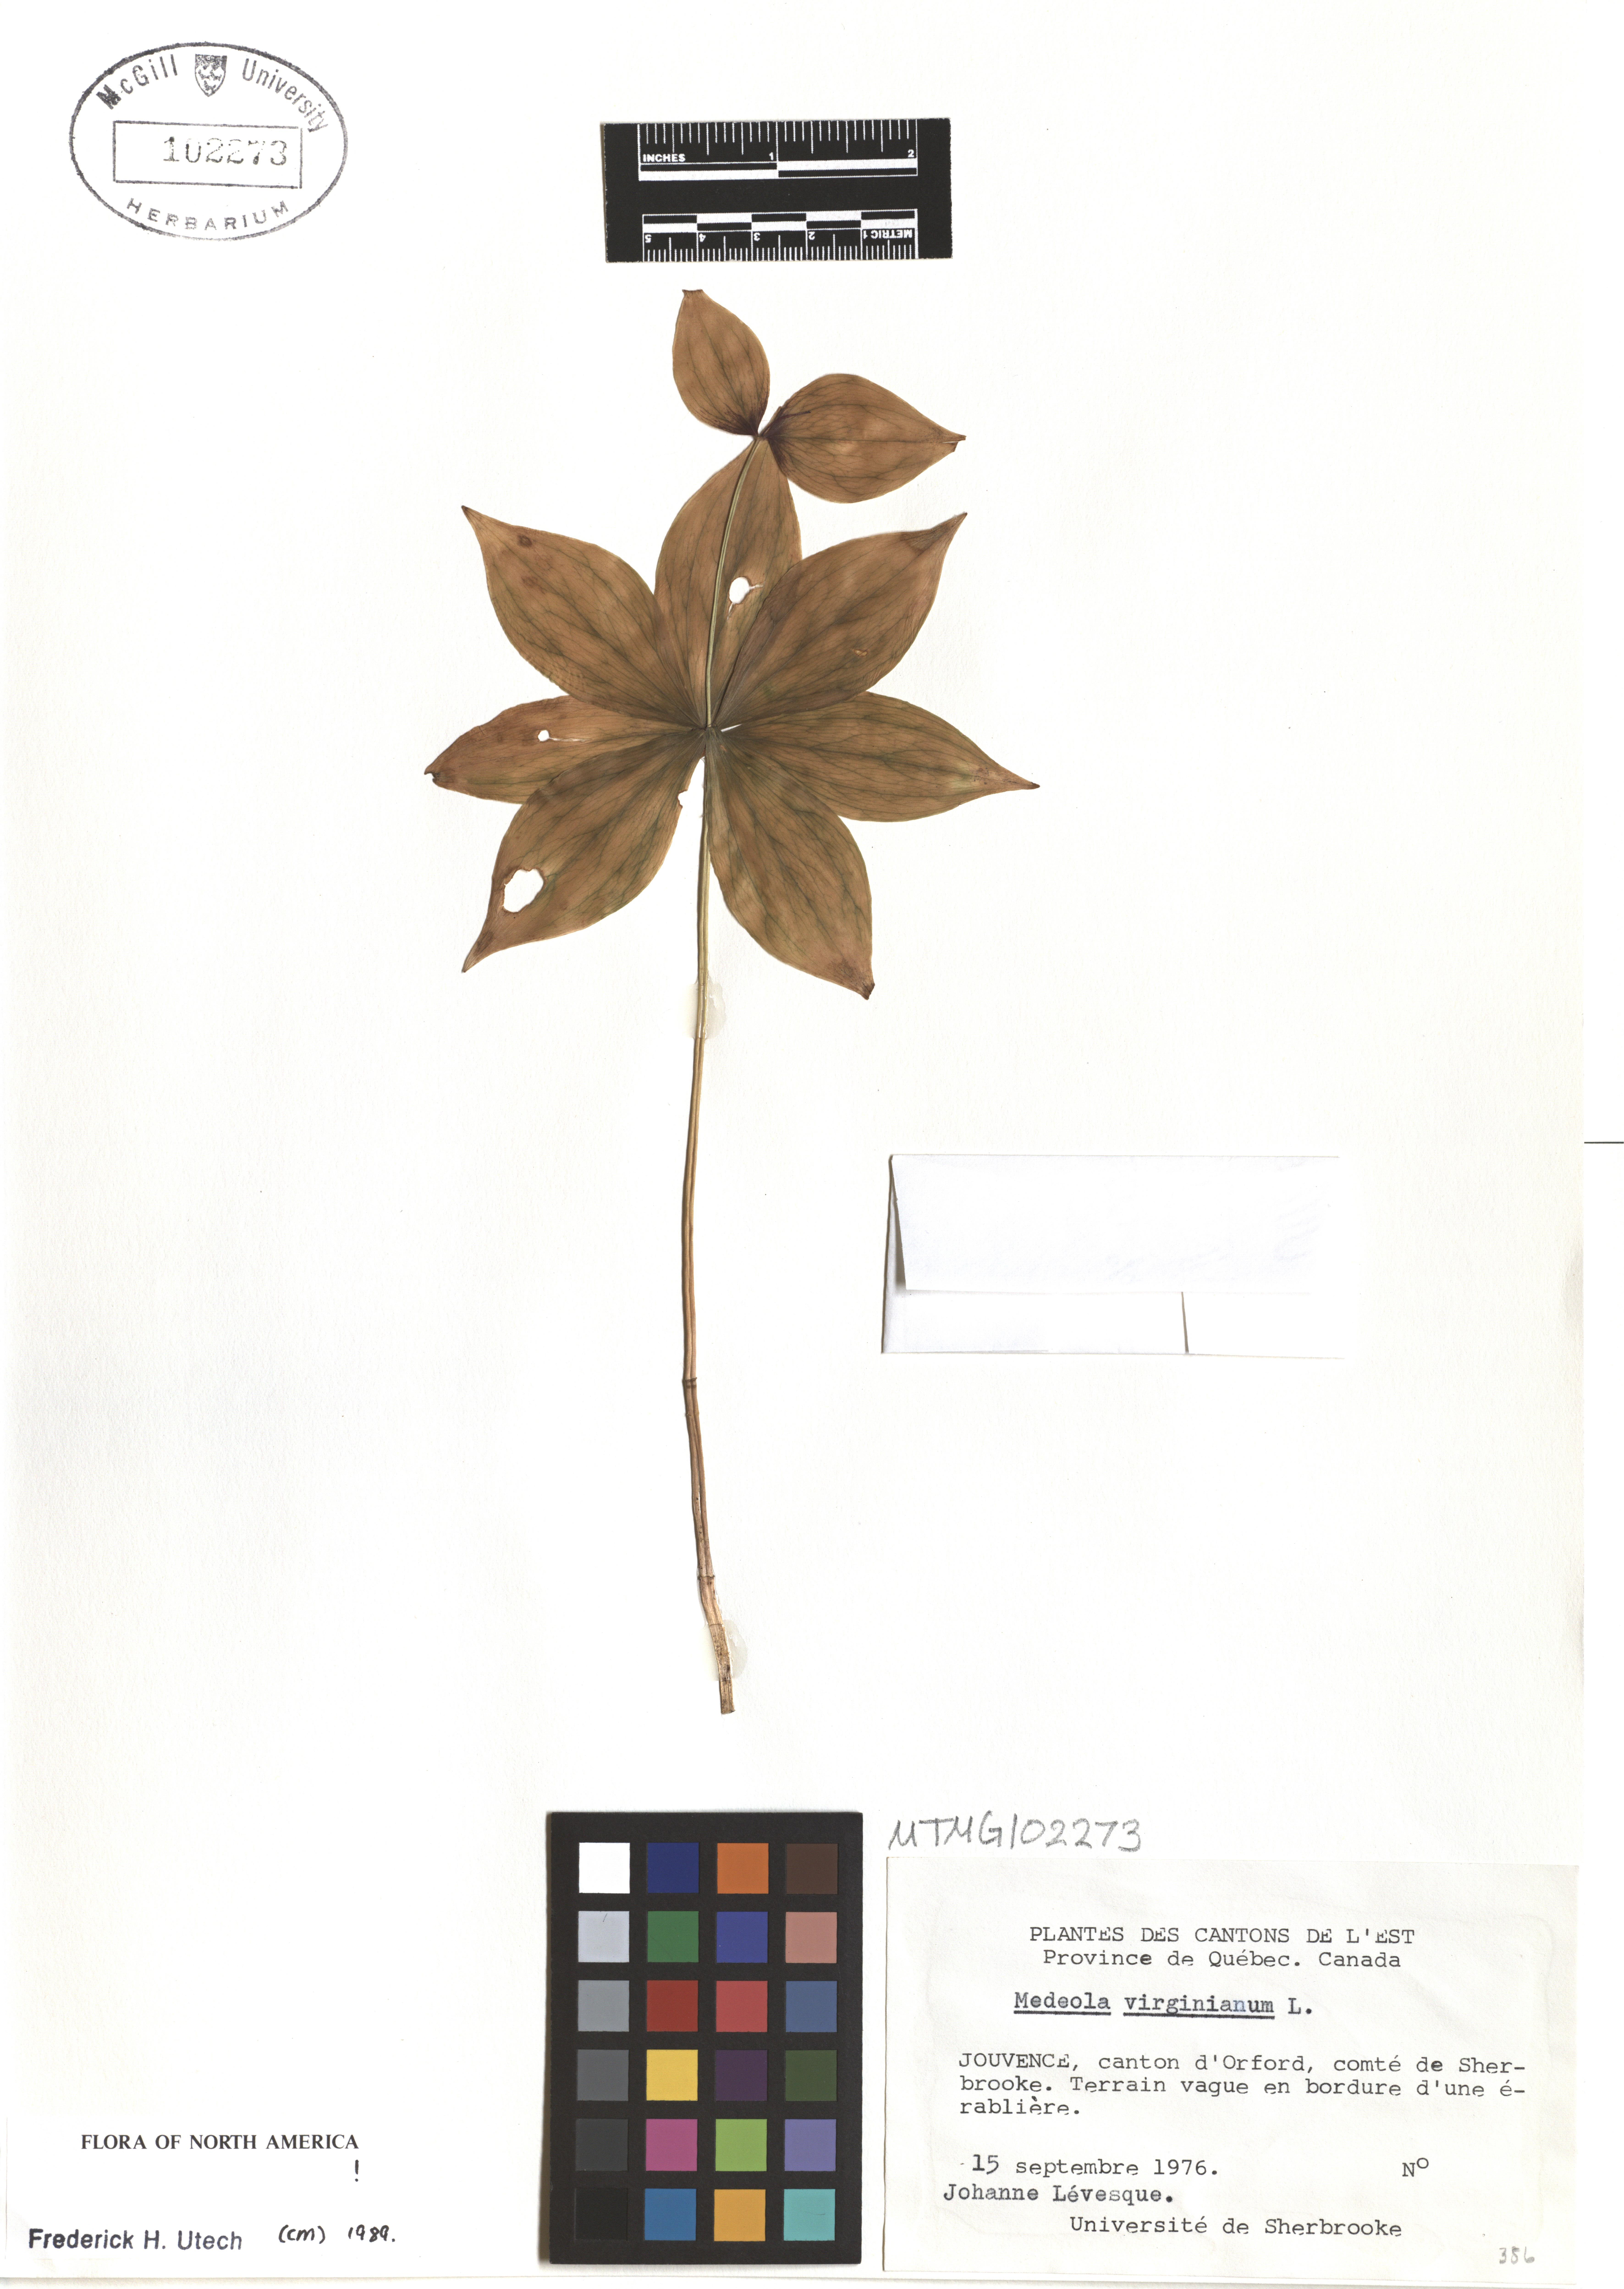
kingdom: Plantae
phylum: Tracheophyta
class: Liliopsida
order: Liliales
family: Liliaceae
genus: Medeola
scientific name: Medeola virginiana
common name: Indian cucumber-root
